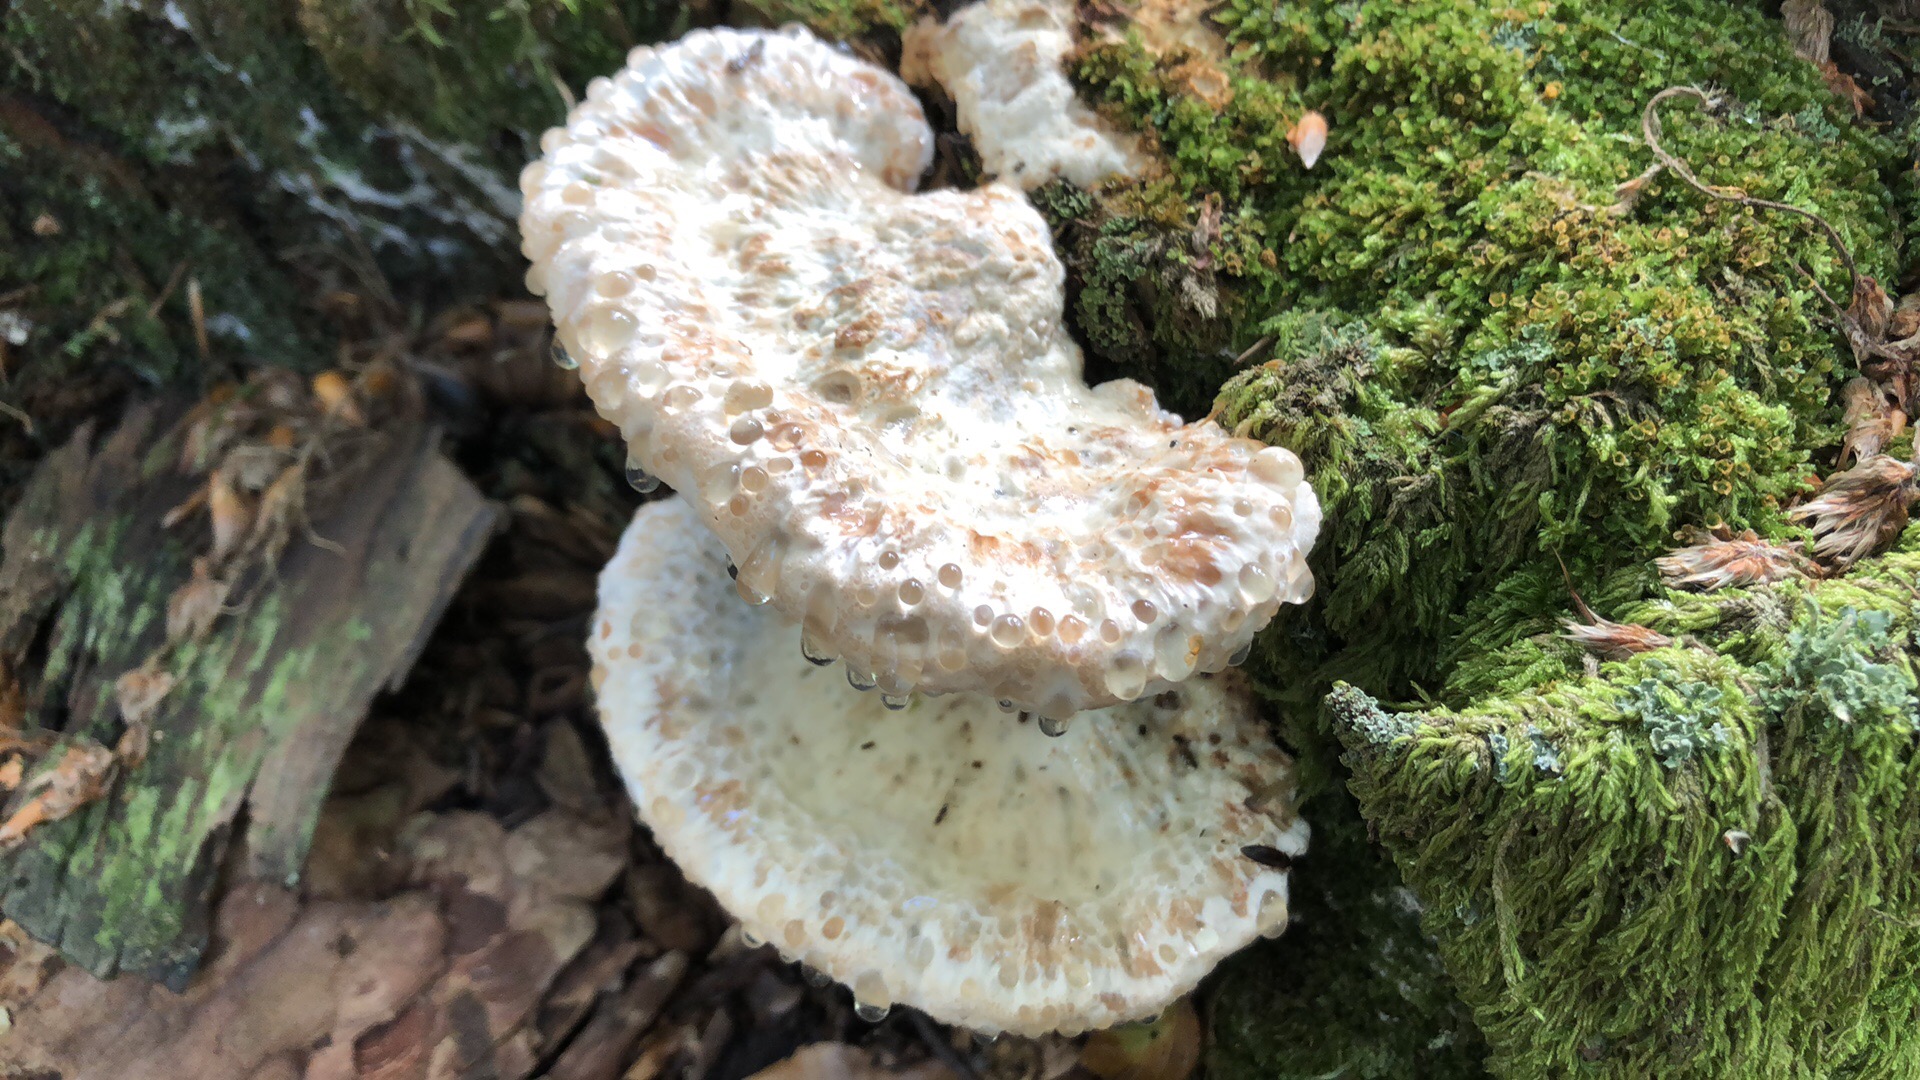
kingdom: Fungi
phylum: Basidiomycota
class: Agaricomycetes
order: Polyporales
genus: Calcipostia
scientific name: Calcipostia guttulata
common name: dråbe-kødporesvamp
